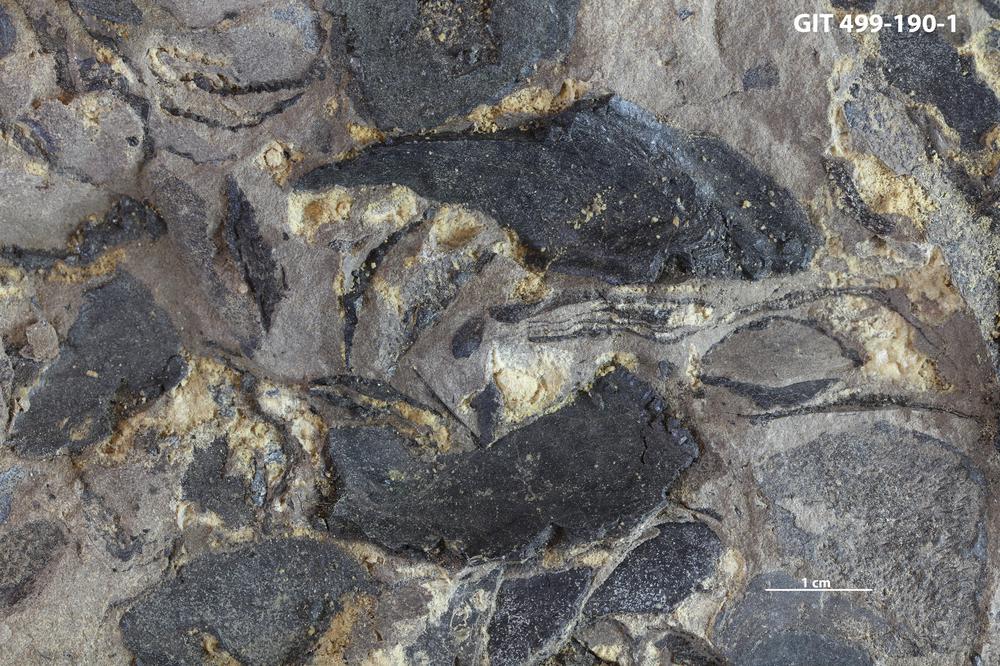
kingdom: Animalia
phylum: Chordata
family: Holoptychiidae
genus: Glyptolepis
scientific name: Glyptolepis
